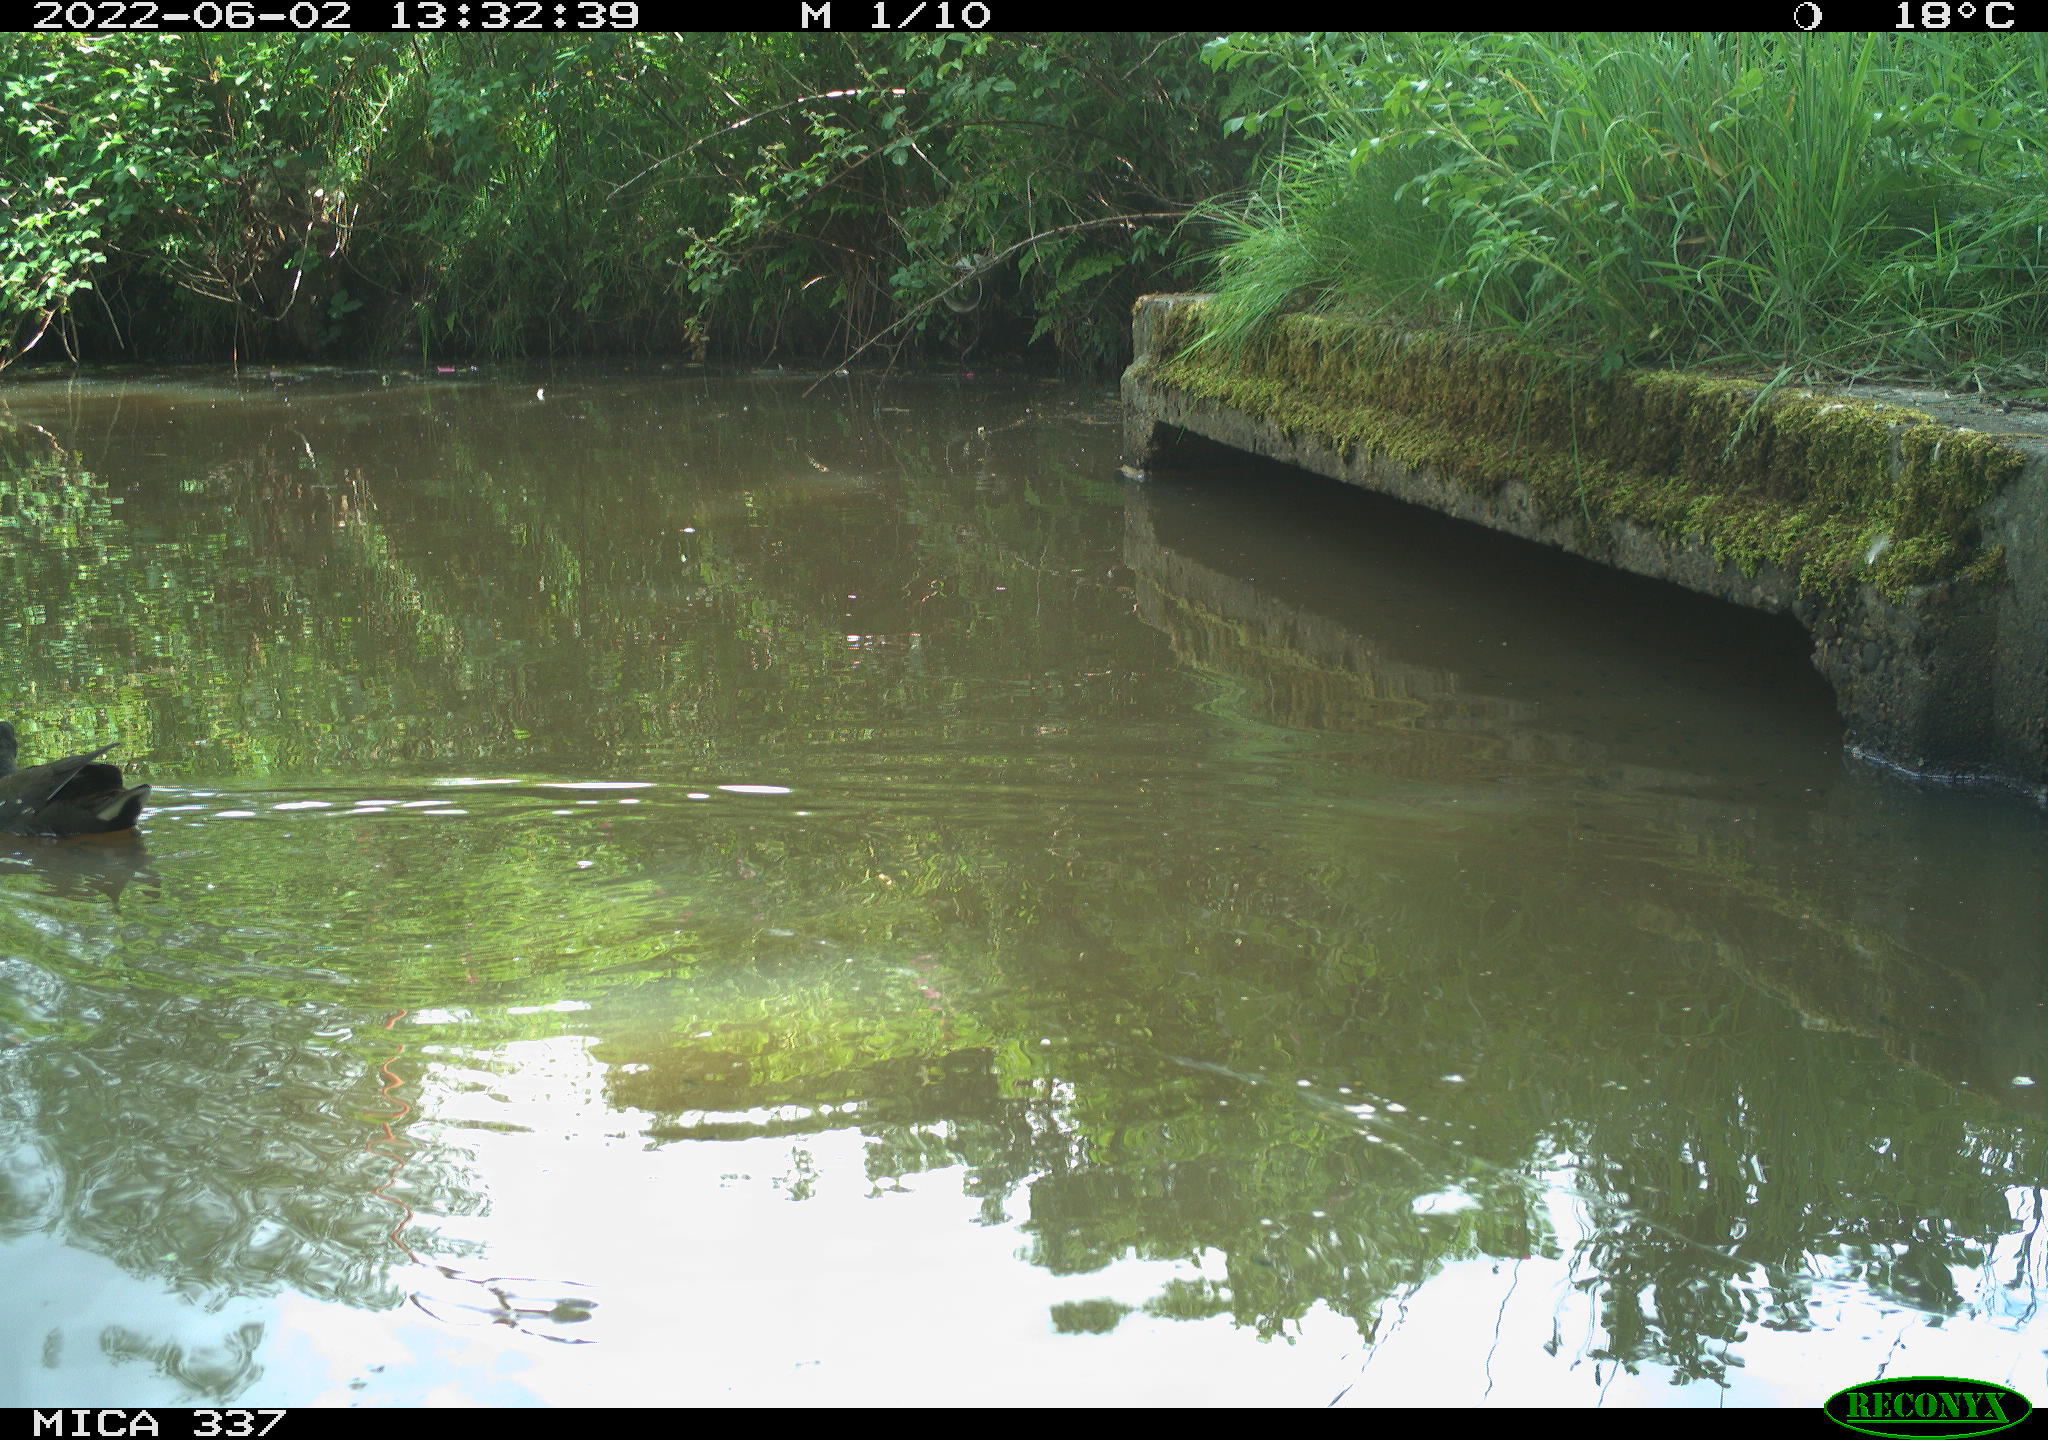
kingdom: Animalia
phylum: Chordata
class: Aves
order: Gruiformes
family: Rallidae
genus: Gallinula
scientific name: Gallinula chloropus
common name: Common moorhen
